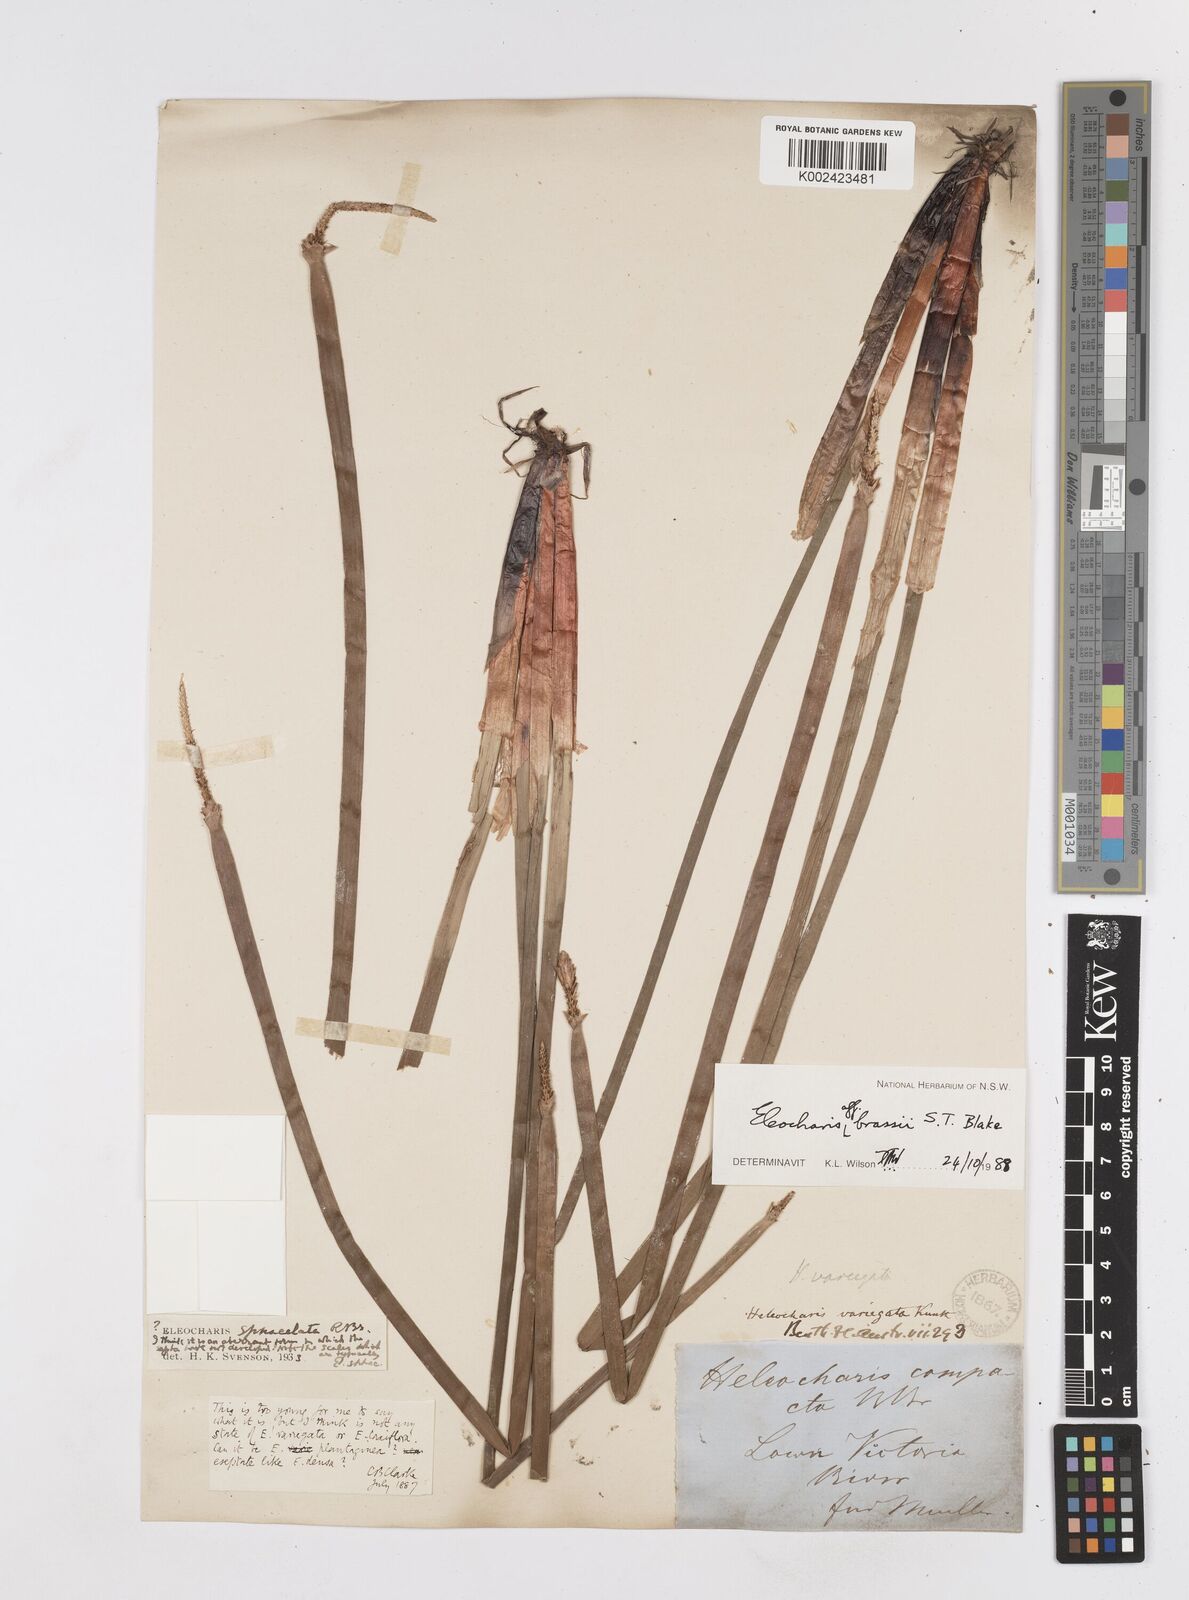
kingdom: Plantae
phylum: Tracheophyta
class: Liliopsida
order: Poales
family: Cyperaceae
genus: Eleocharis
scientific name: Eleocharis brassii
